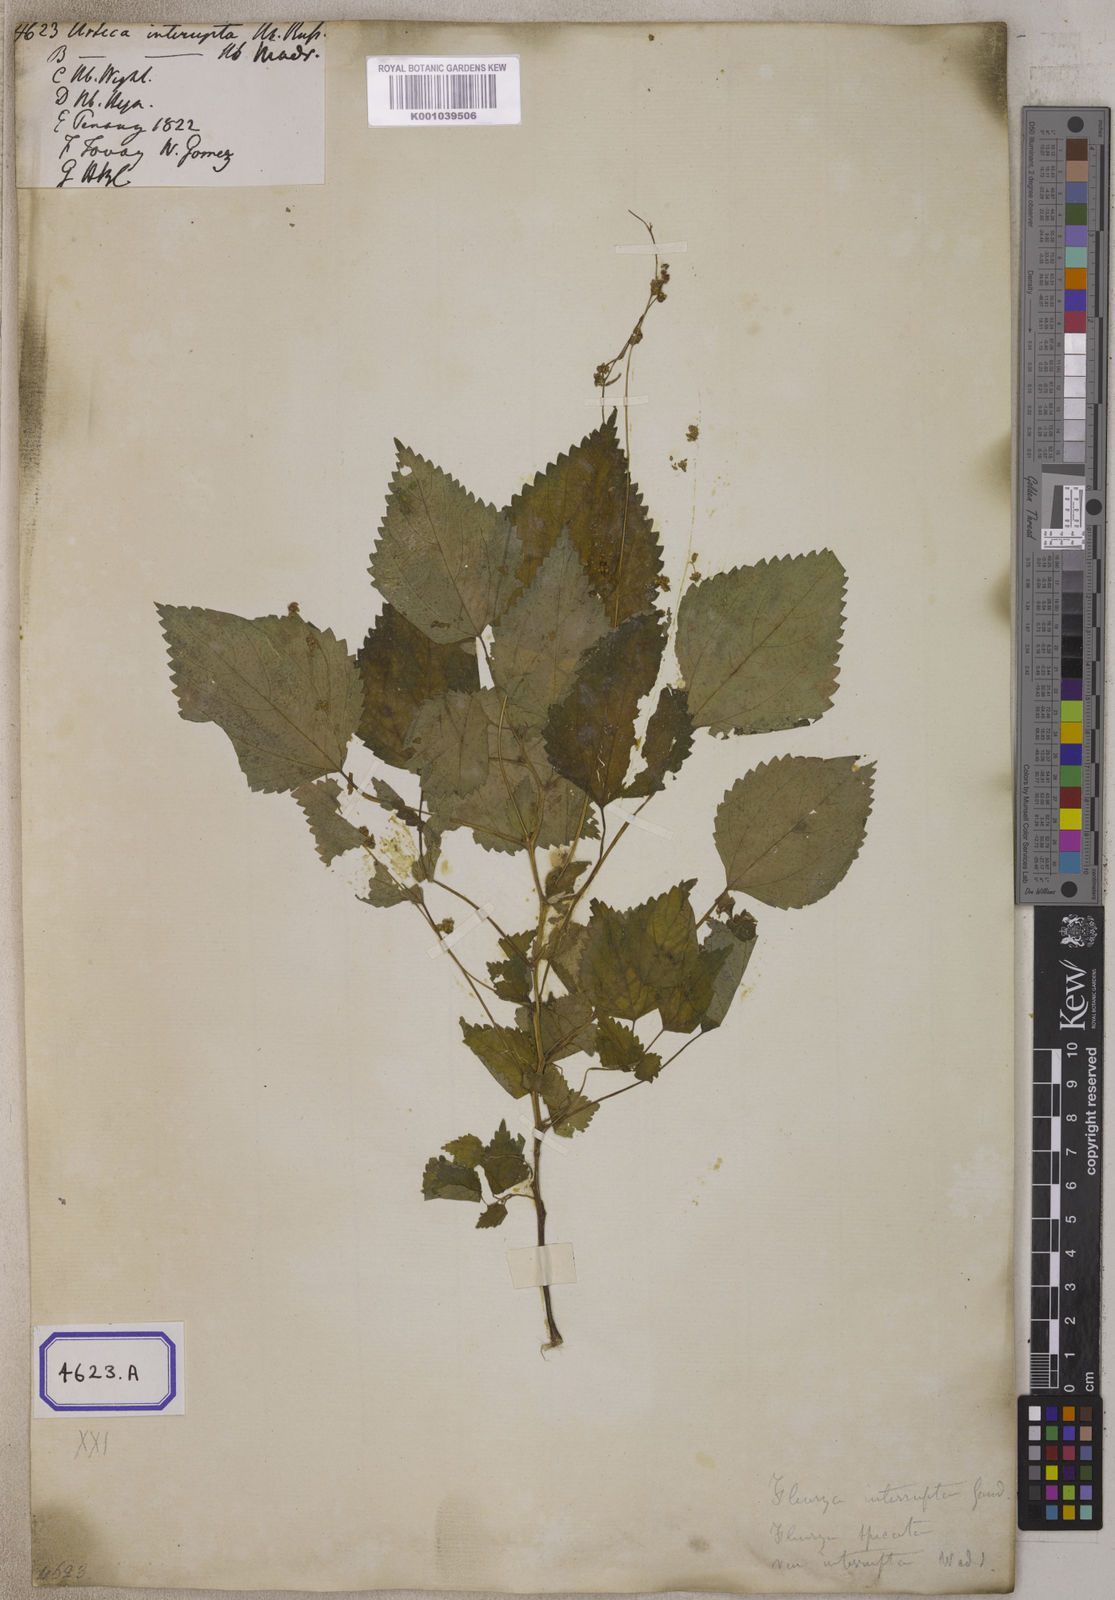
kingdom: Plantae
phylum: Tracheophyta
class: Magnoliopsida
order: Rosales
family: Urticaceae
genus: Laportea
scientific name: Laportea interrupta
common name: Hawaiian wood-nettle
